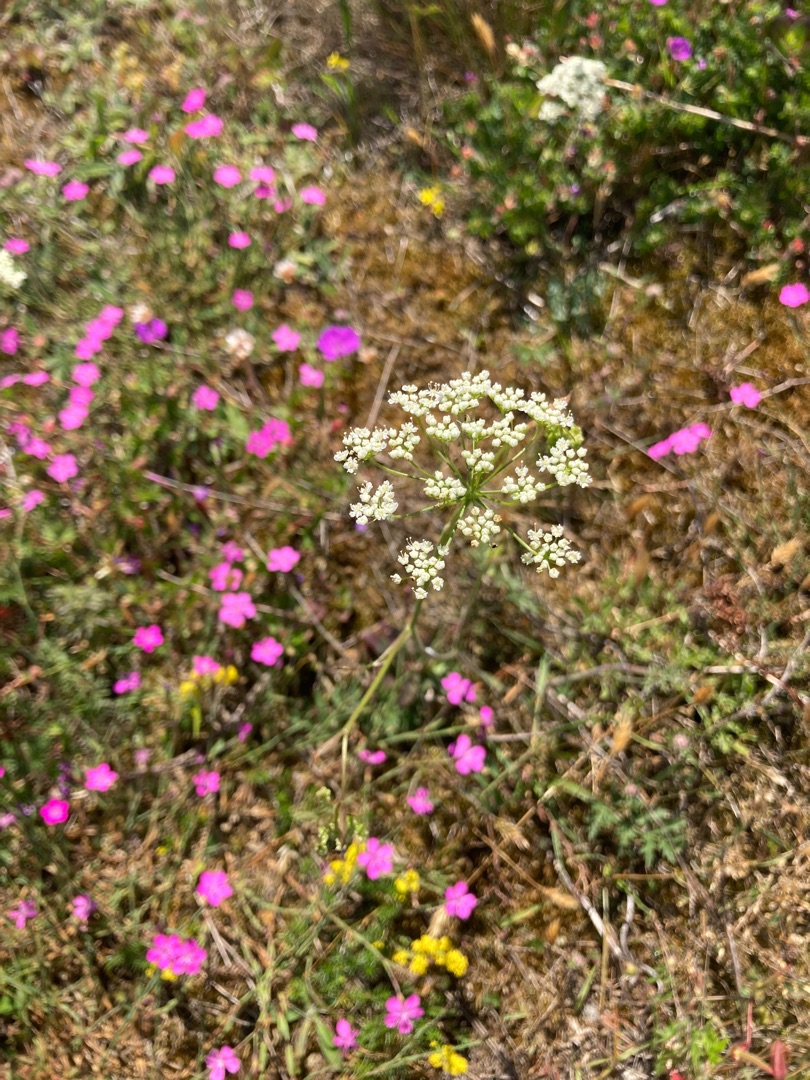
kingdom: Plantae
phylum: Tracheophyta
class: Magnoliopsida
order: Apiales
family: Apiaceae
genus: Pimpinella
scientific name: Pimpinella saxifraga
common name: Almindelig pimpinelle
